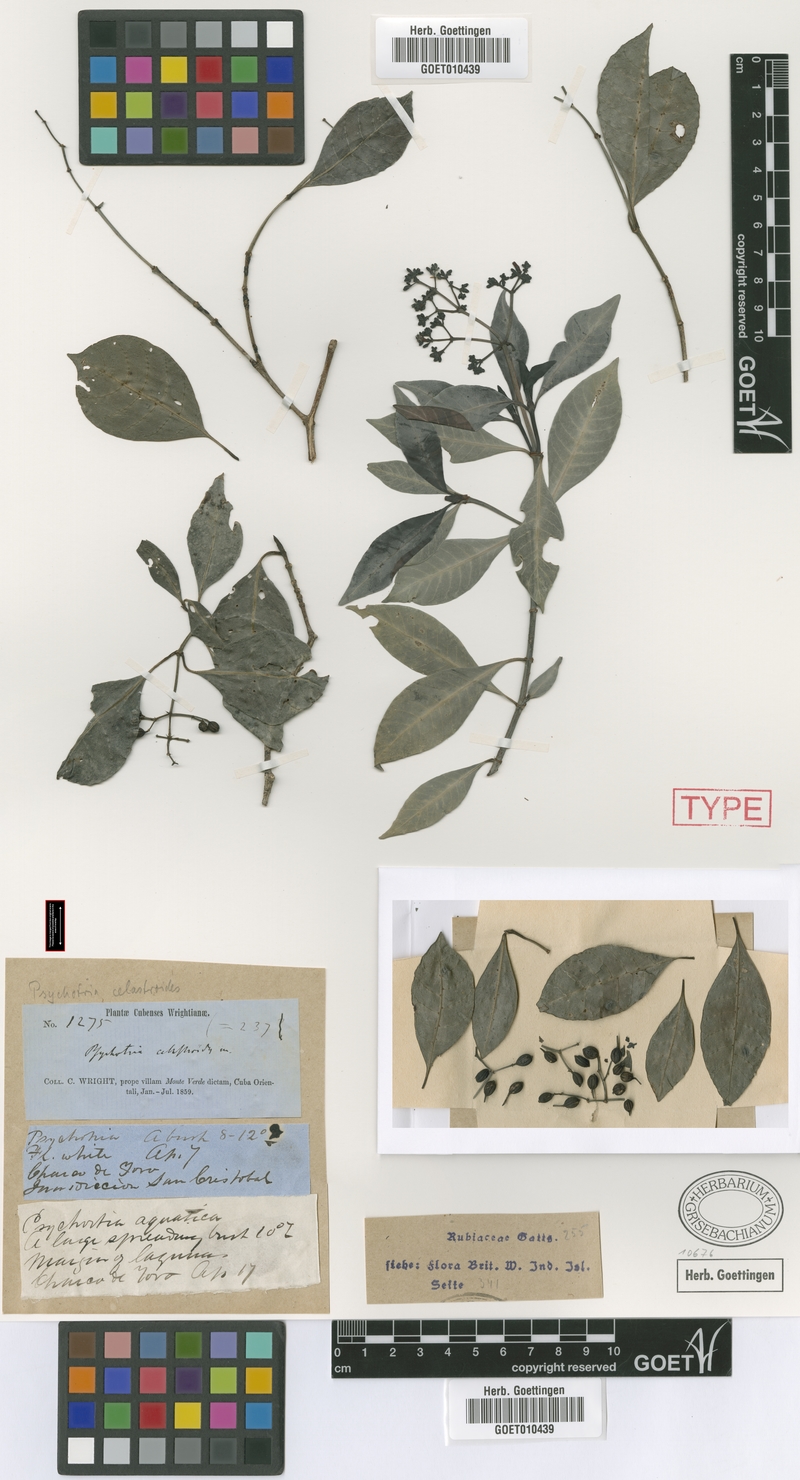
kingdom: Plantae
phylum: Tracheophyta
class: Magnoliopsida
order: Gentianales
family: Rubiaceae
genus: Psychotria
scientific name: Psychotria congesta
